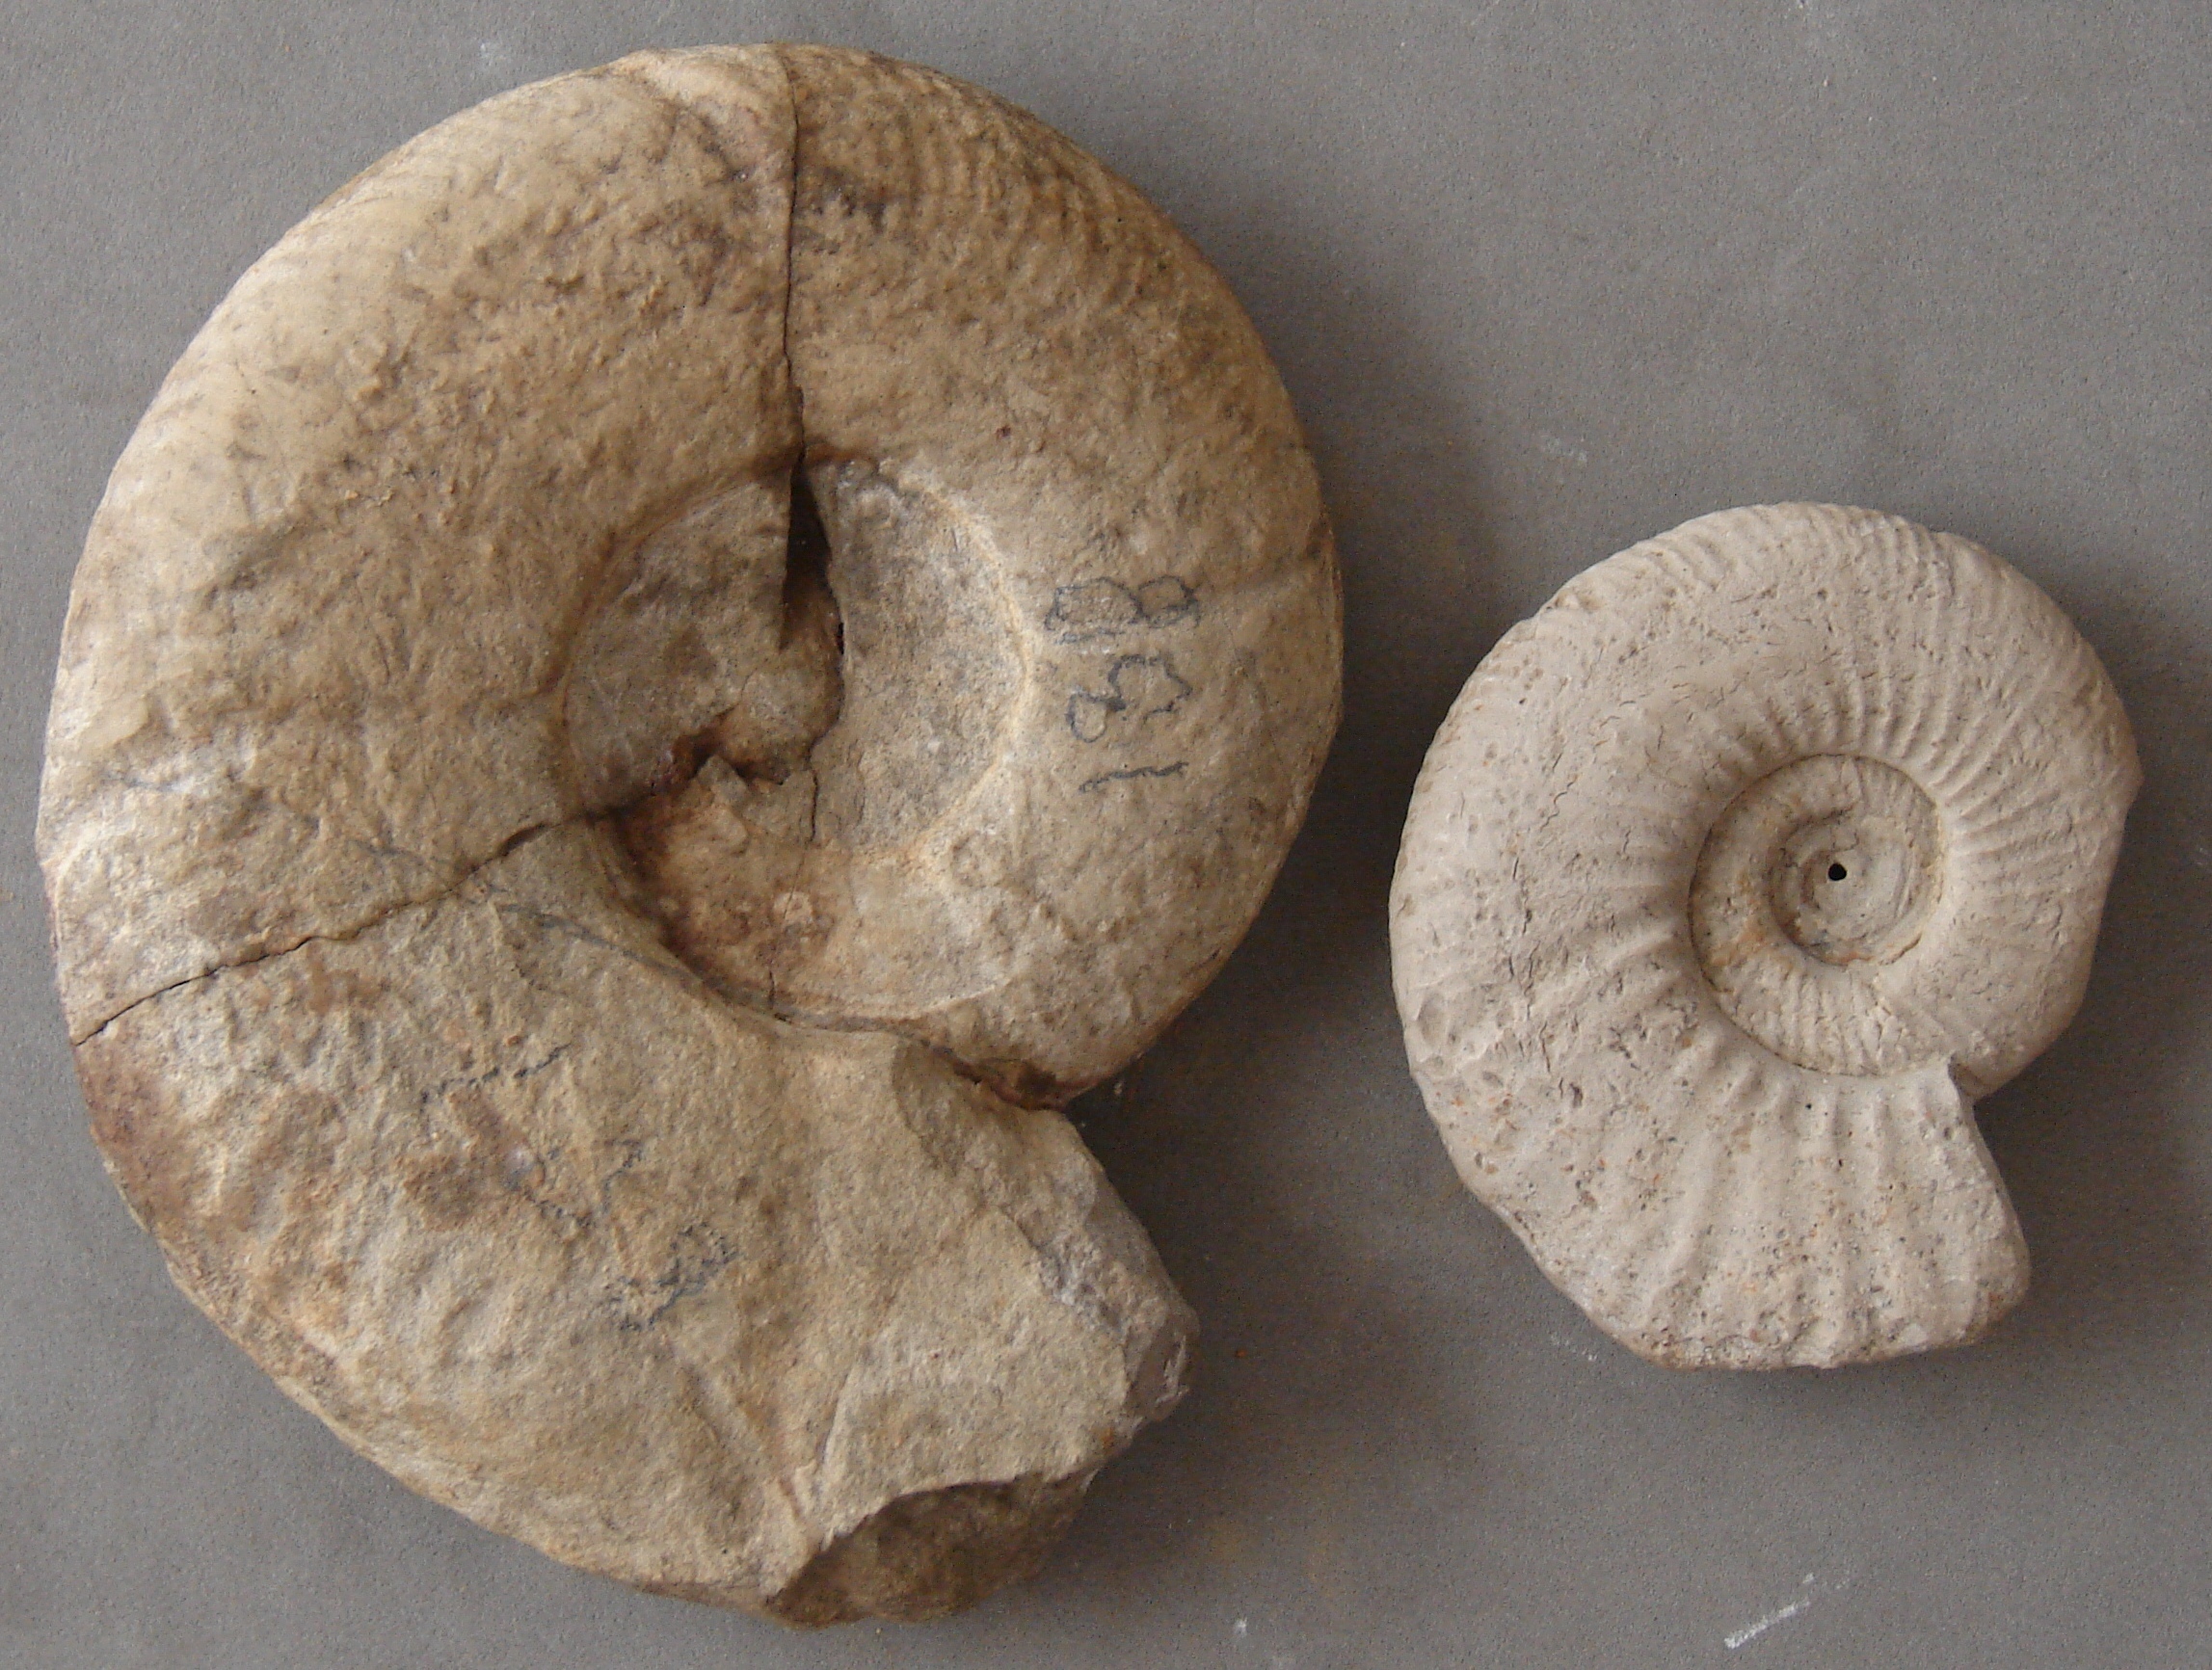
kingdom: Animalia
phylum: Mollusca
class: Cephalopoda
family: Desmoceratidae
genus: Desmoceras
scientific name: Desmoceras
